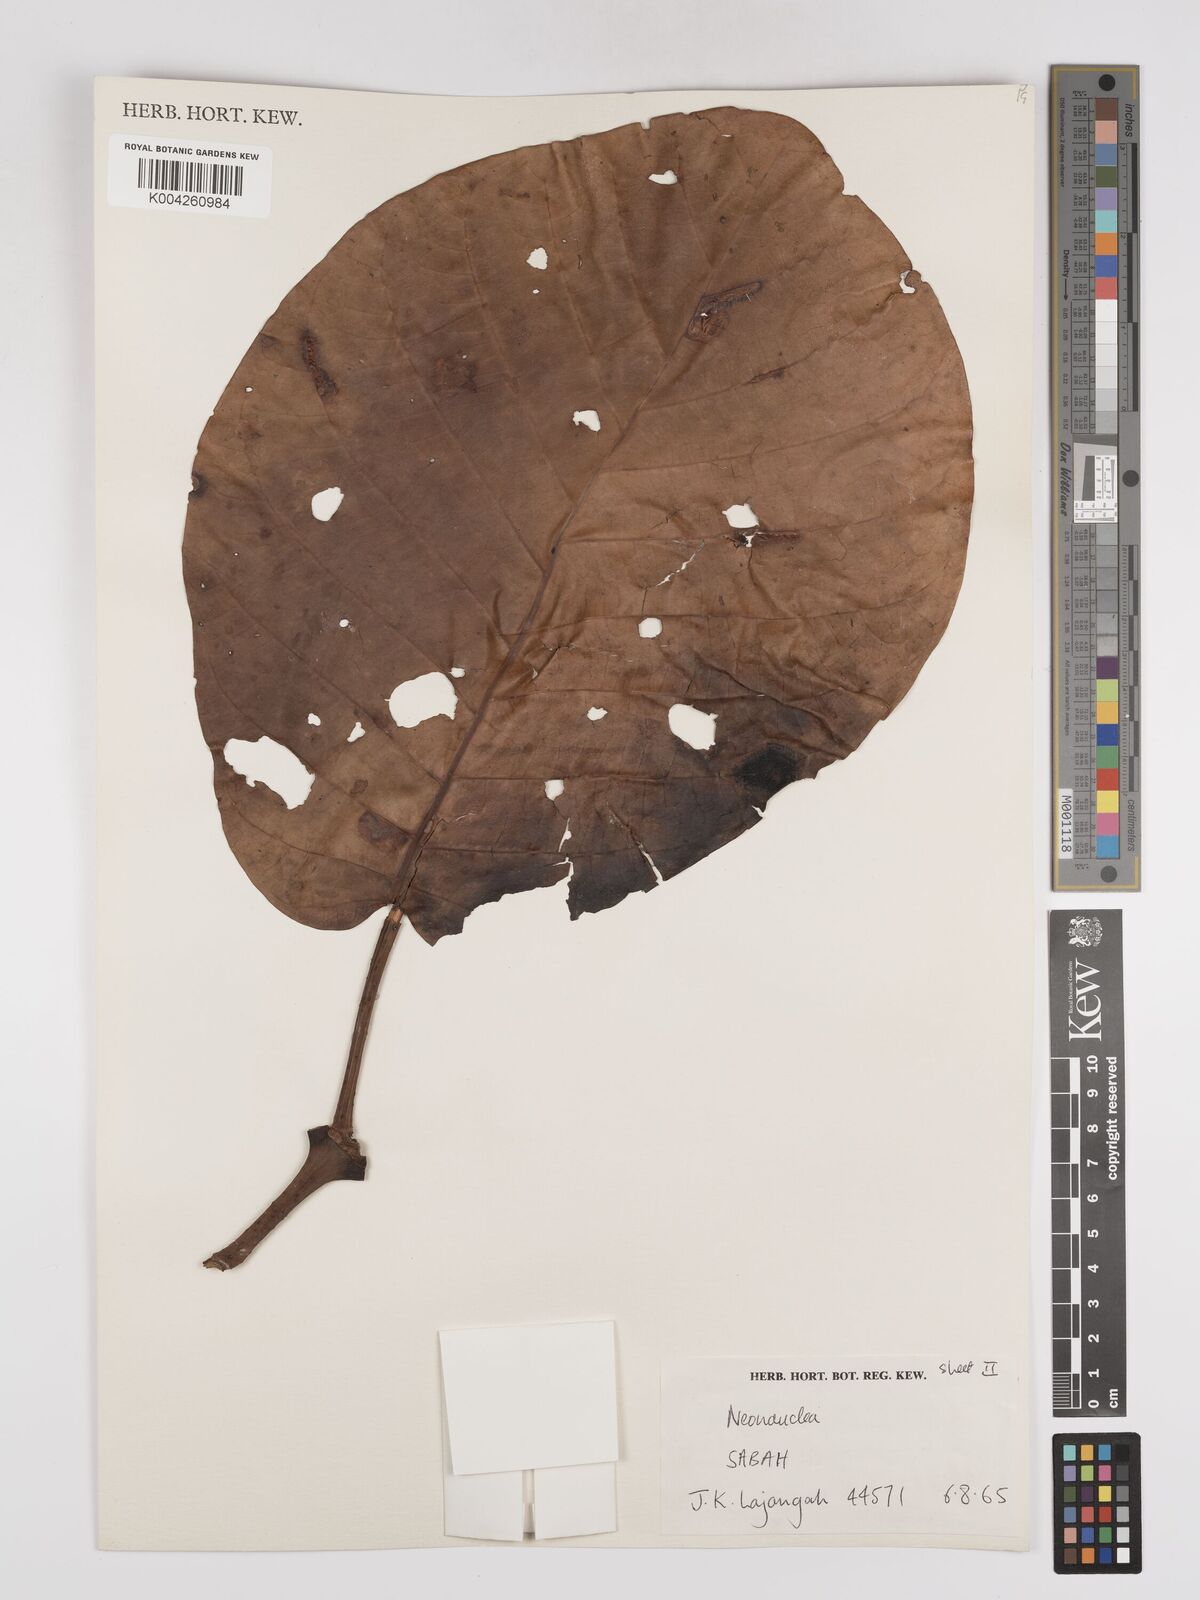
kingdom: Plantae
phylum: Tracheophyta
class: Magnoliopsida
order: Gentianales
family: Rubiaceae
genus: Neonauclea
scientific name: Neonauclea gigantea
